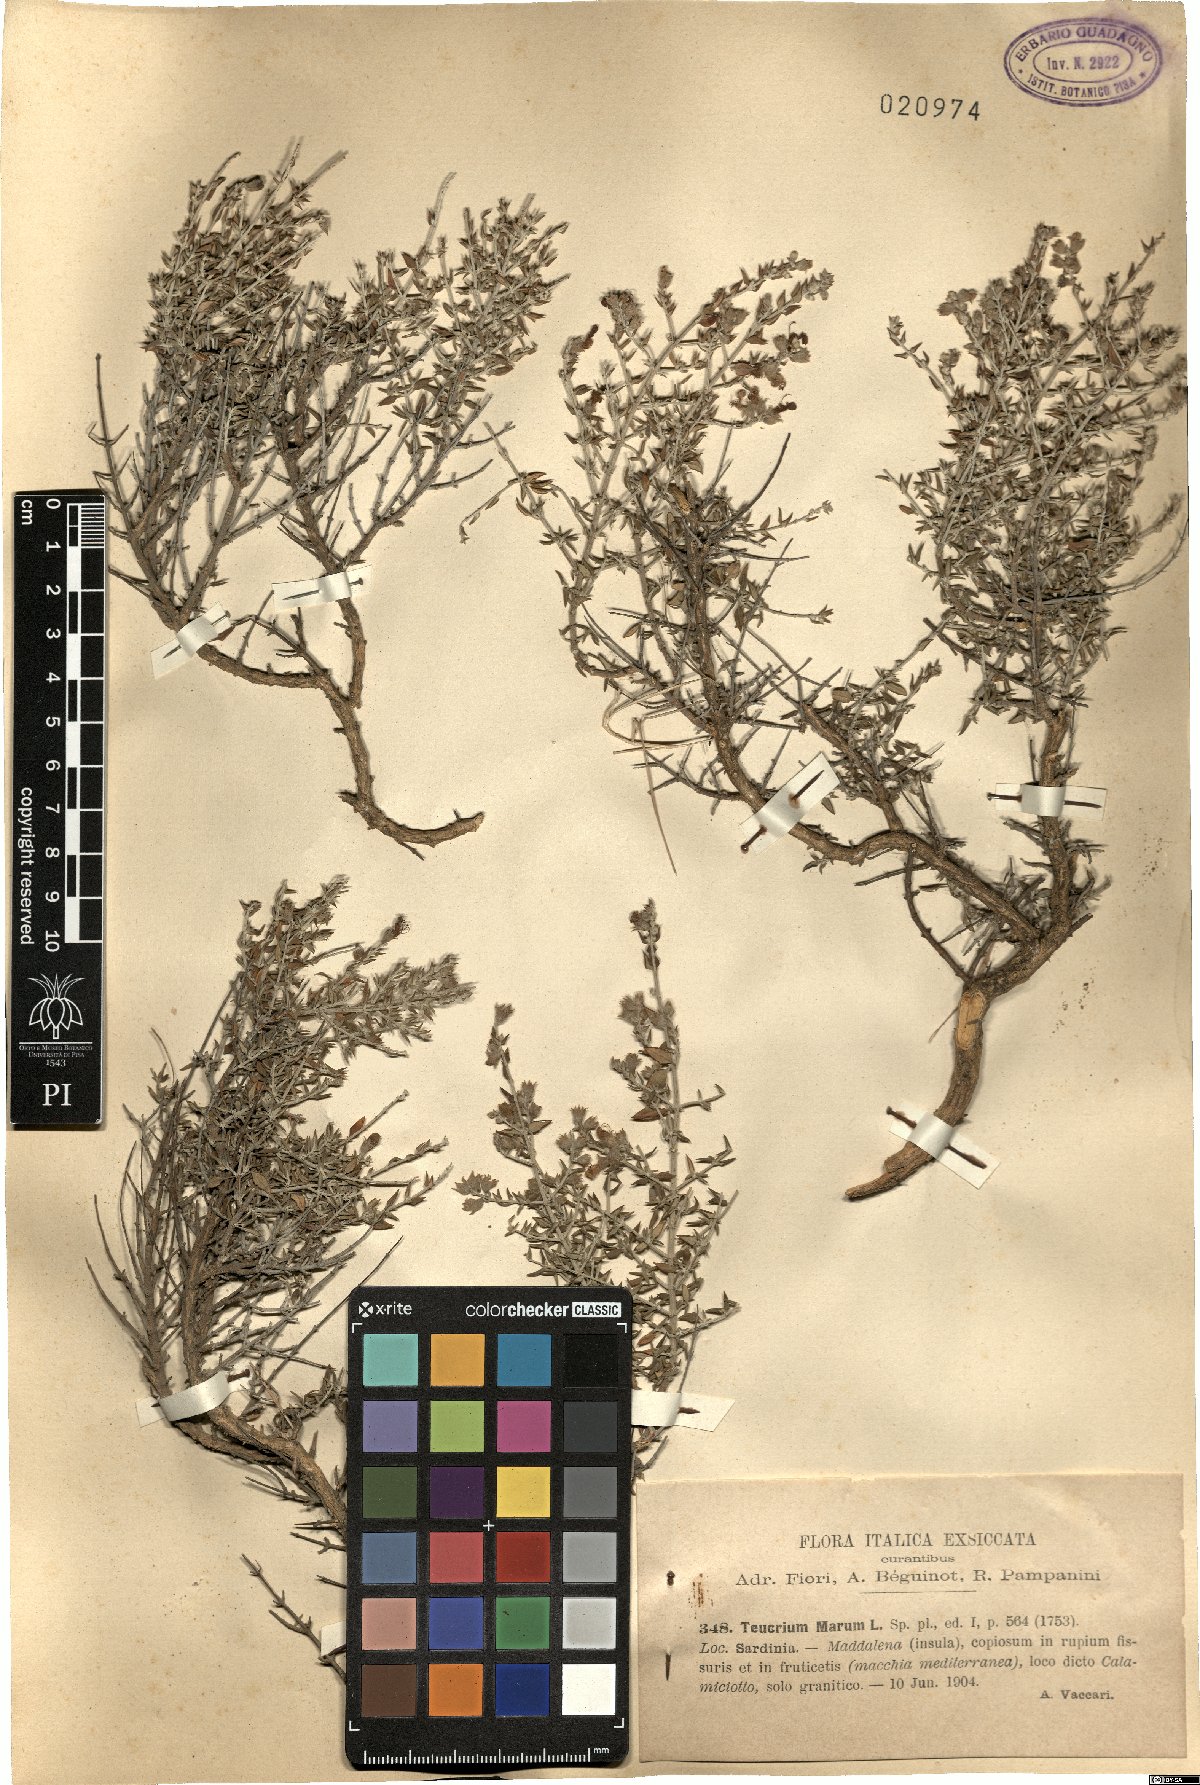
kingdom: Plantae
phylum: Tracheophyta
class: Magnoliopsida
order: Lamiales
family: Lamiaceae
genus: Teucrium
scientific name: Teucrium marum
